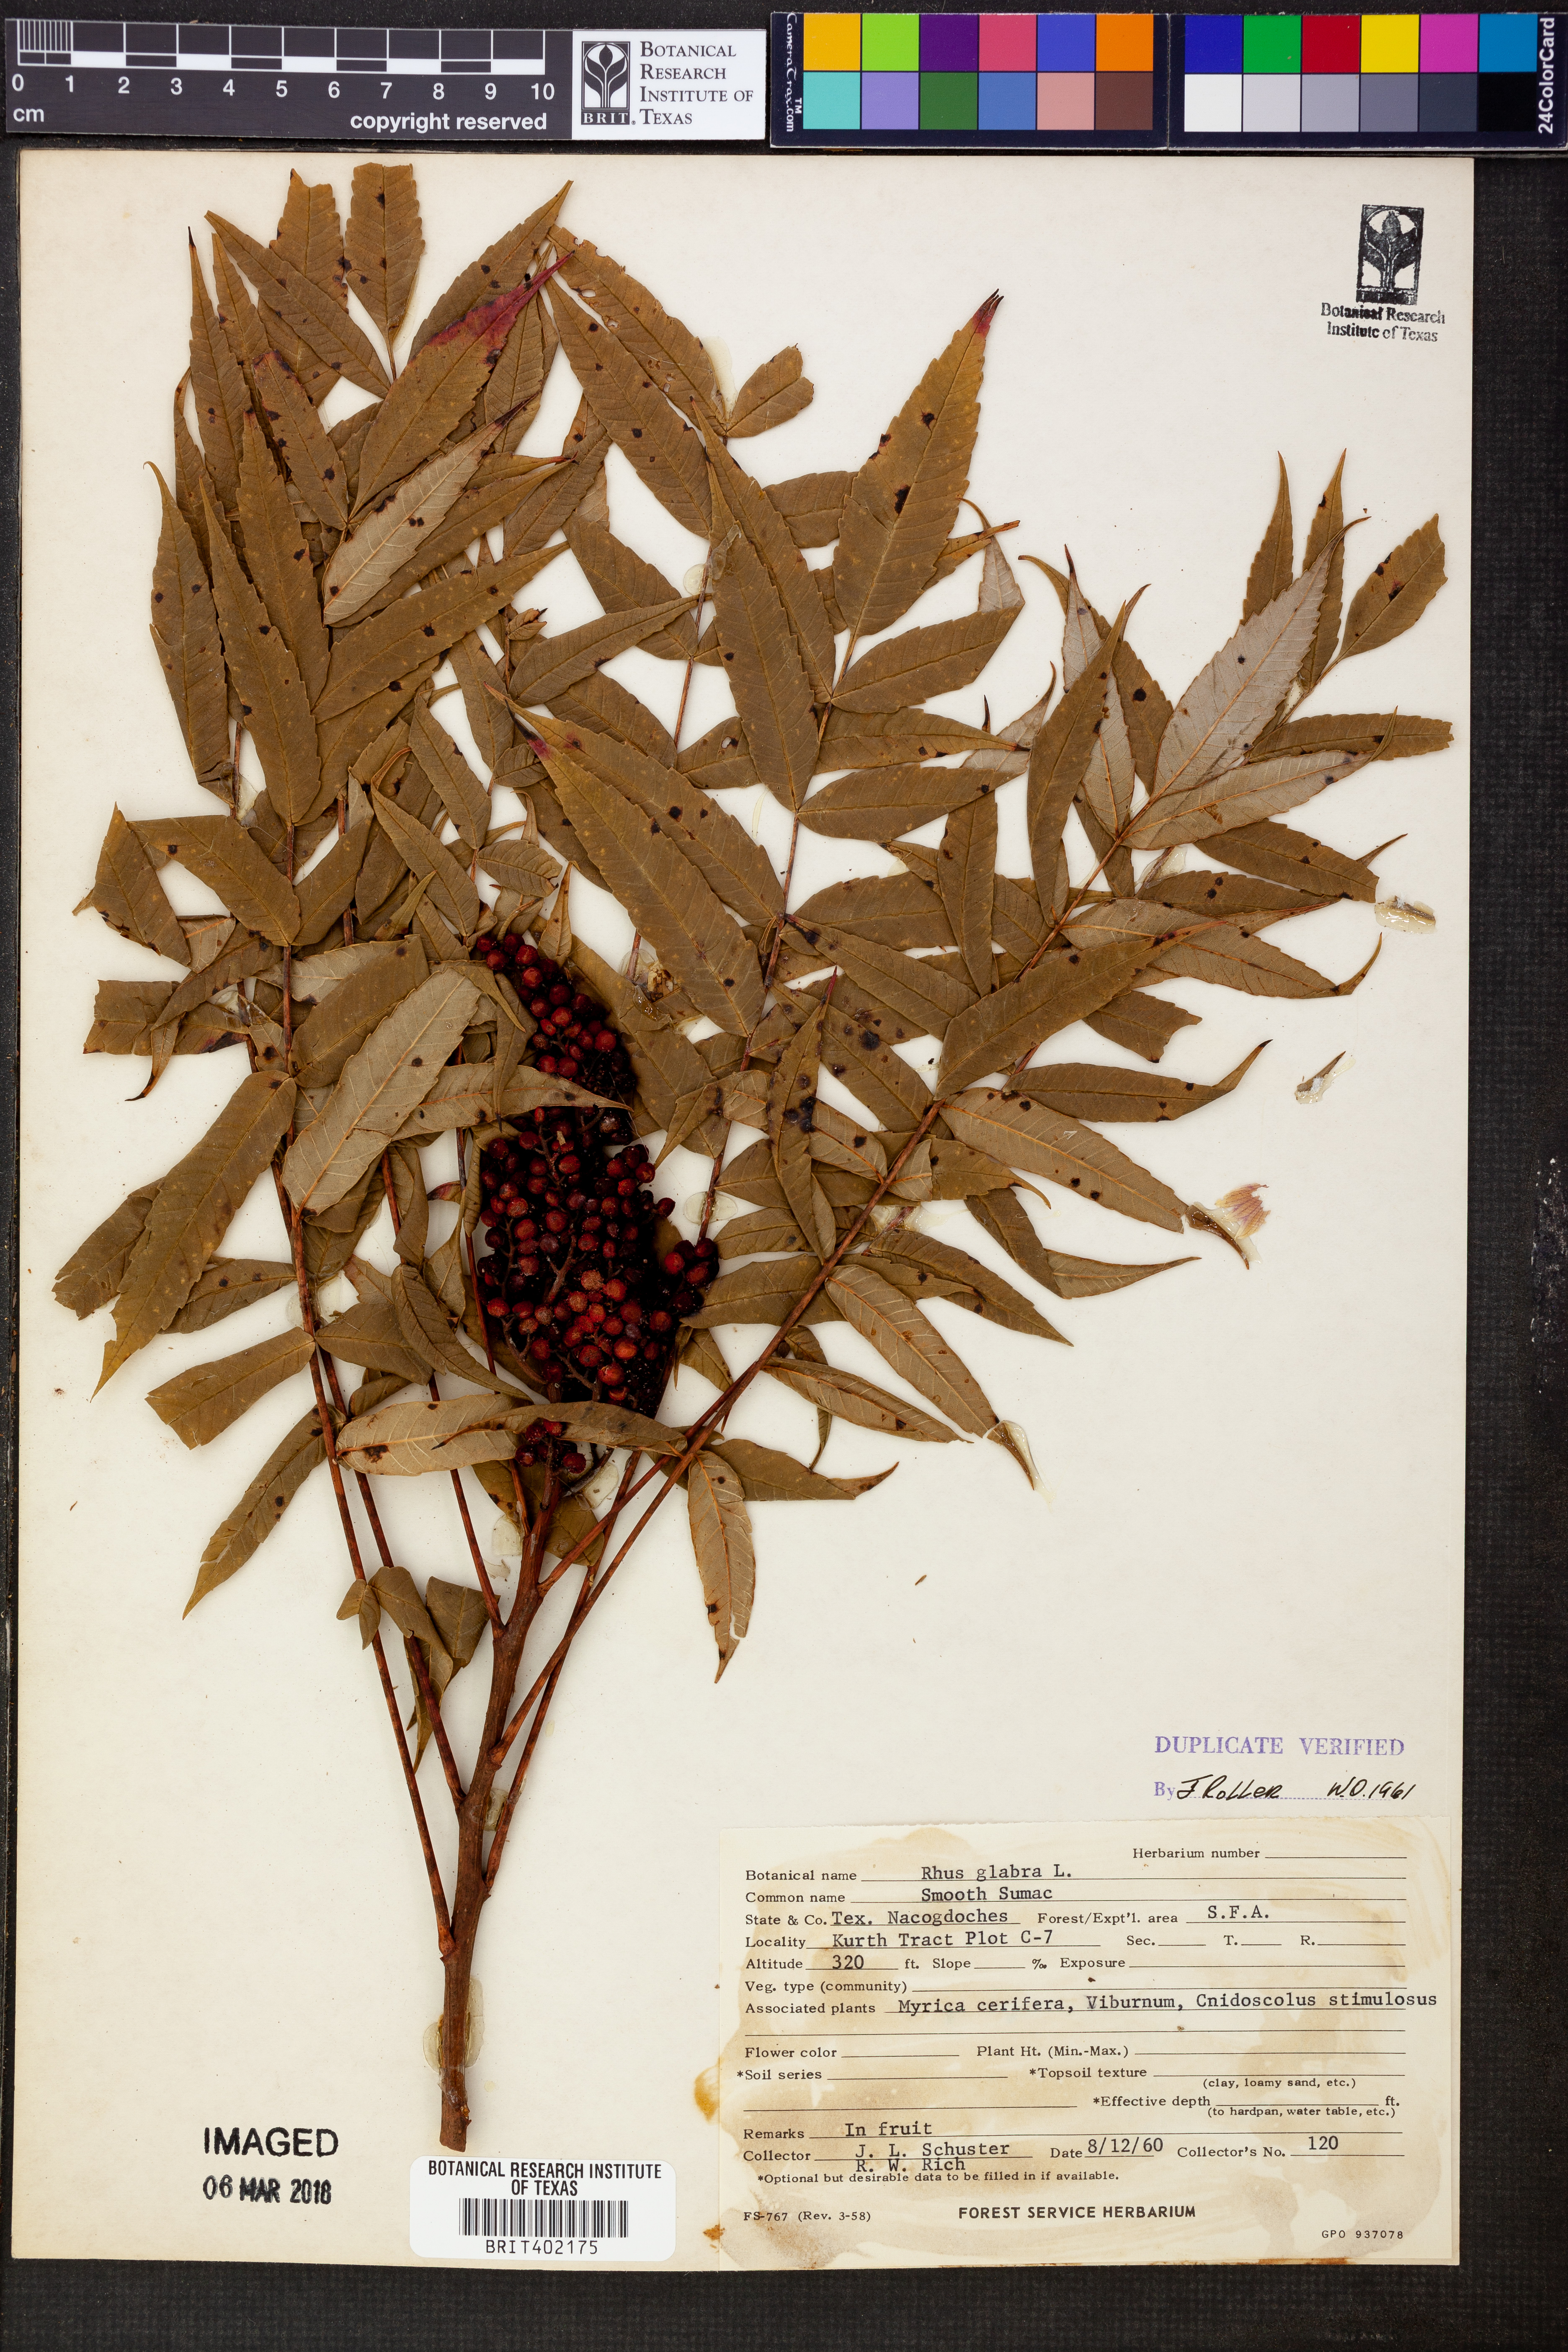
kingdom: Plantae
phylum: Tracheophyta
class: Magnoliopsida
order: Sapindales
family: Anacardiaceae
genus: Rhus
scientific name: Rhus glabra
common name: Scarlet sumac
